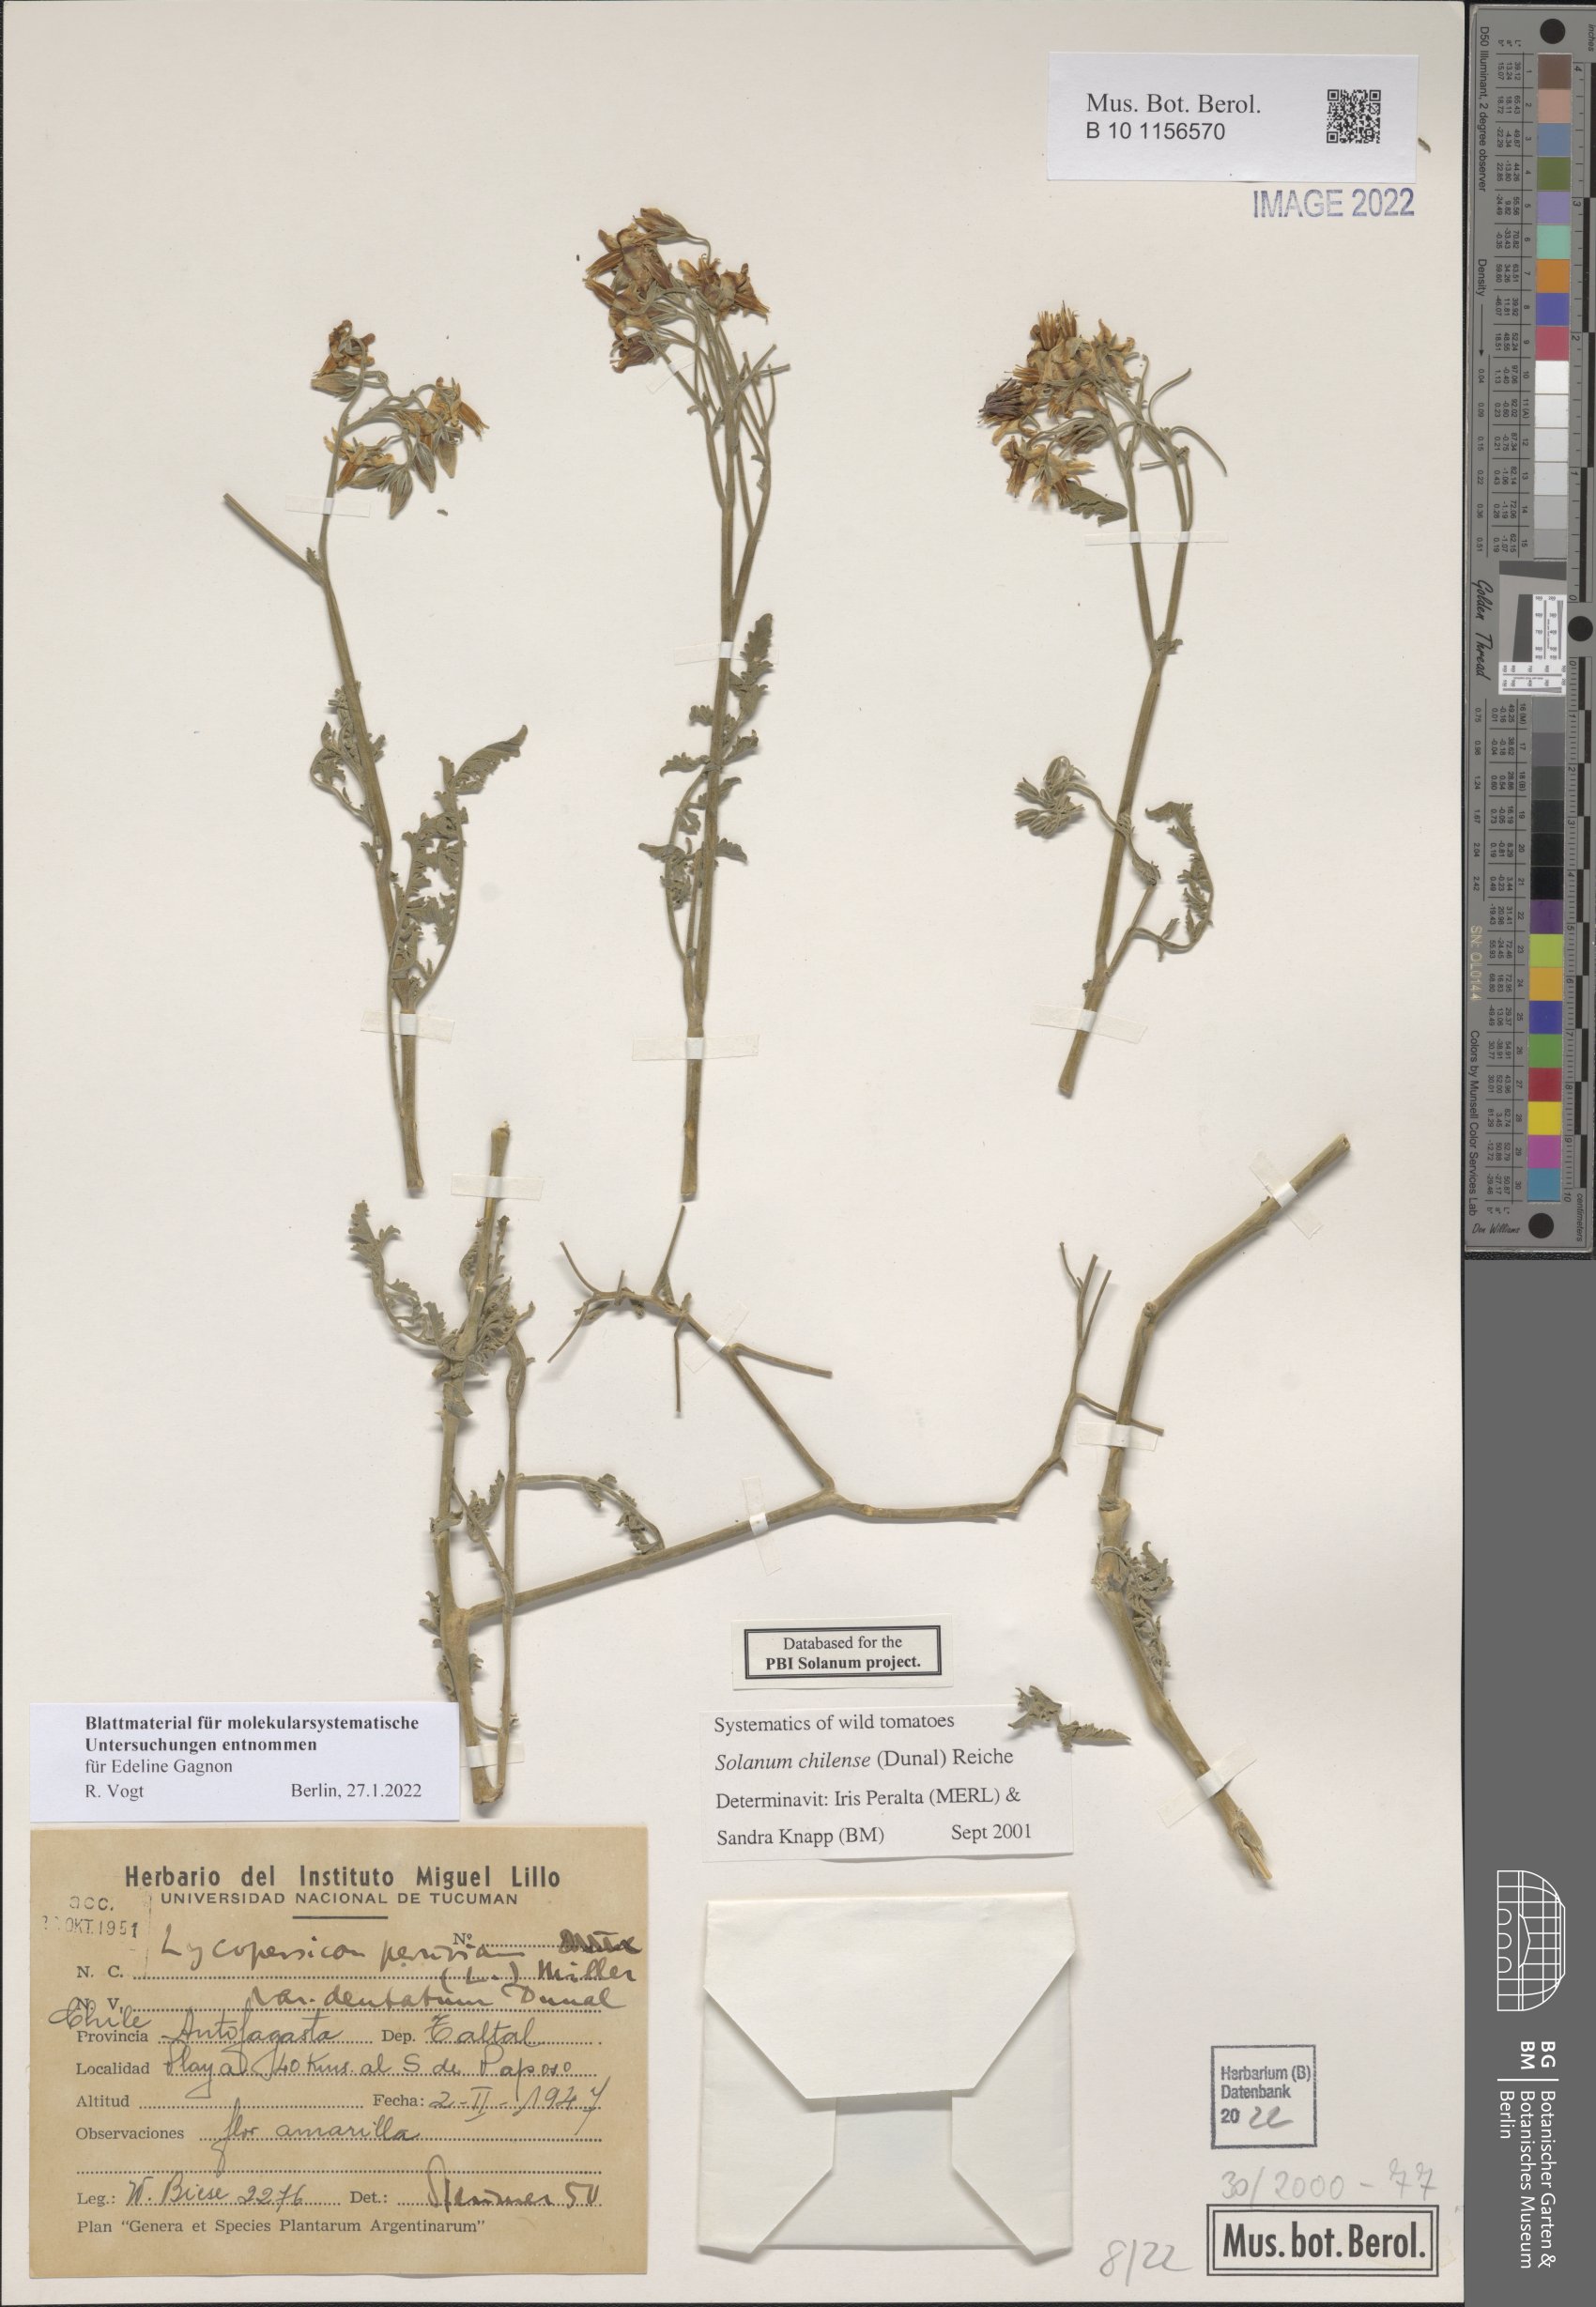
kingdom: Plantae
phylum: Tracheophyta
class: Magnoliopsida
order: Solanales
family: Solanaceae
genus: Solanum
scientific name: Solanum chilense
